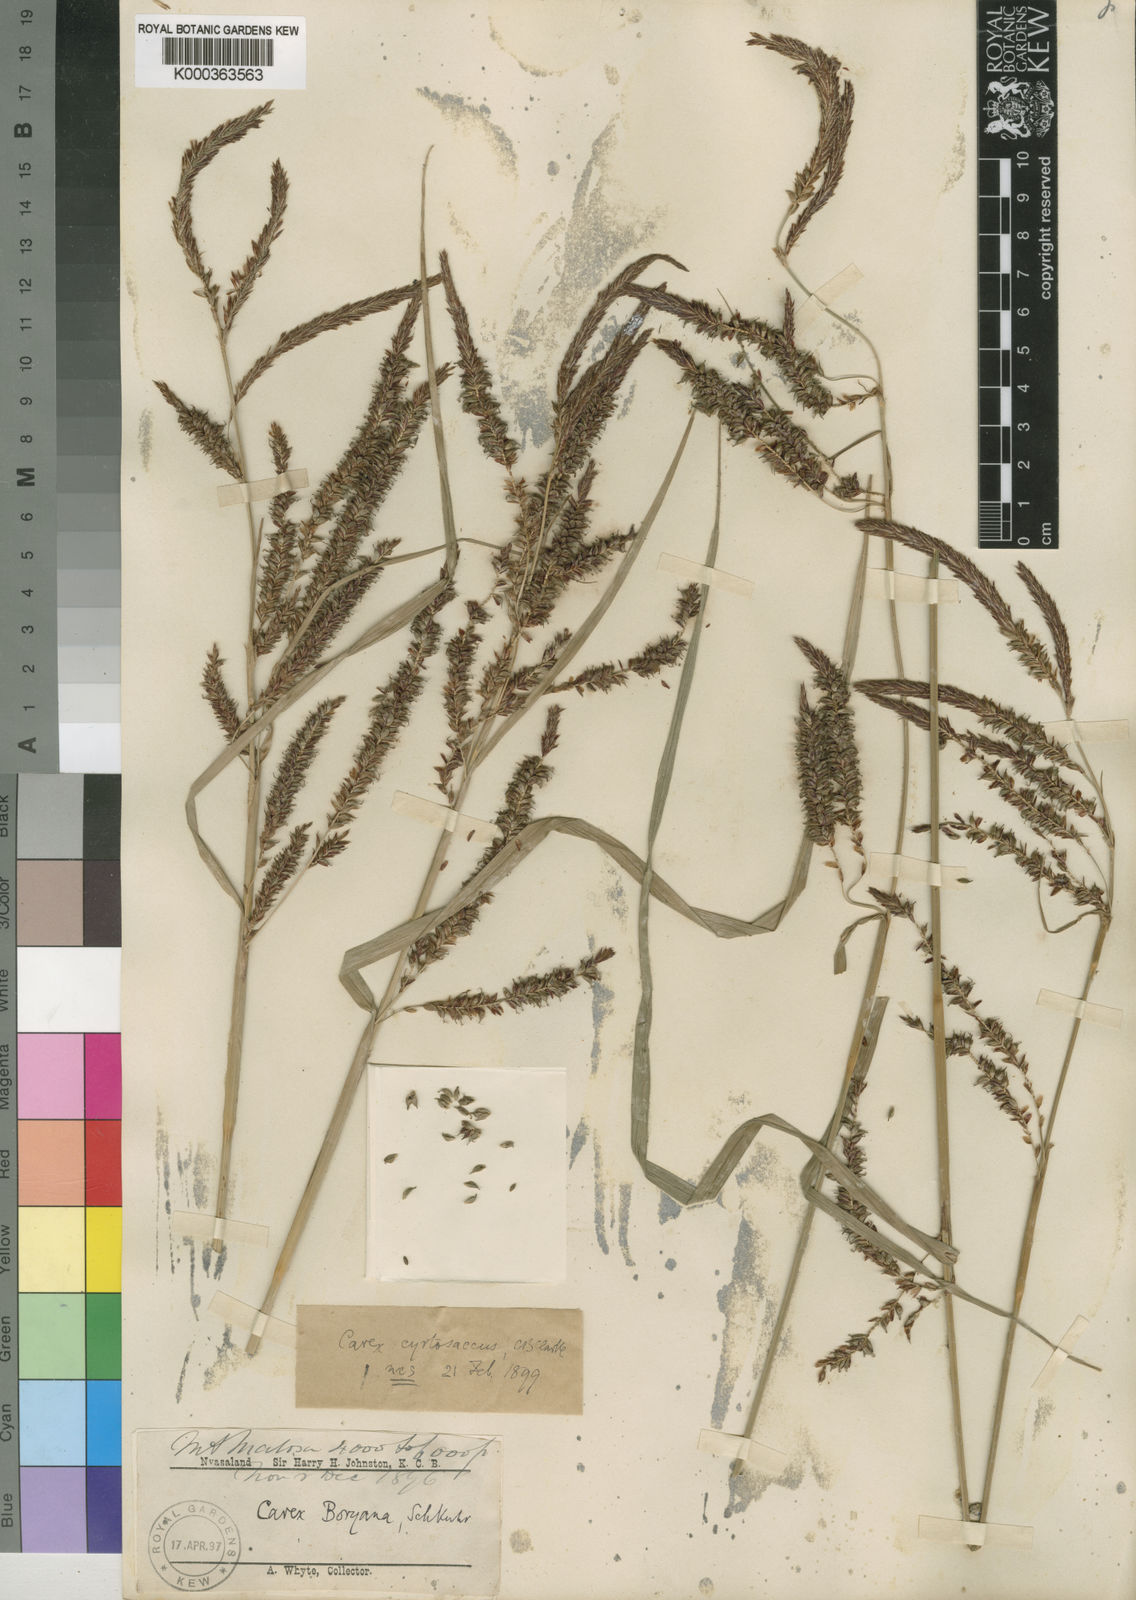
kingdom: Plantae
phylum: Tracheophyta
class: Liliopsida
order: Poales
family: Cyperaceae
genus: Carex
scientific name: Carex vallis-rosetto
